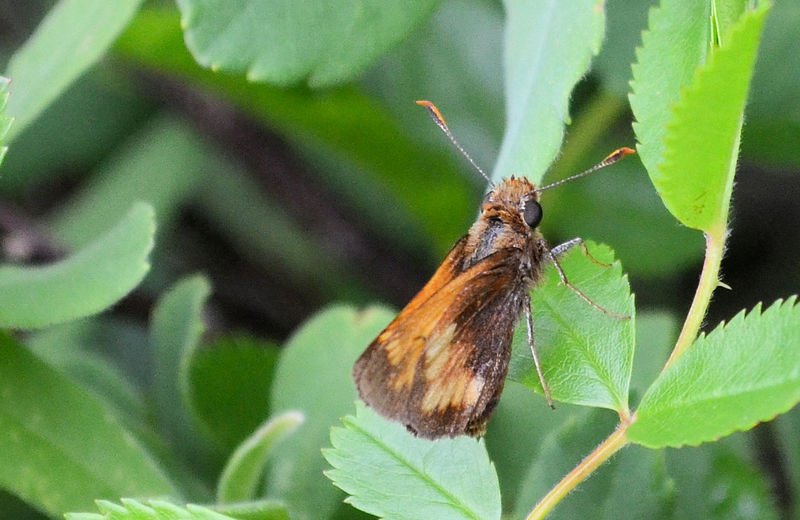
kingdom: Animalia
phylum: Arthropoda
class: Insecta
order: Lepidoptera
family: Hesperiidae
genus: Lon
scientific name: Lon hobomok
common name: Hobomok Skipper
